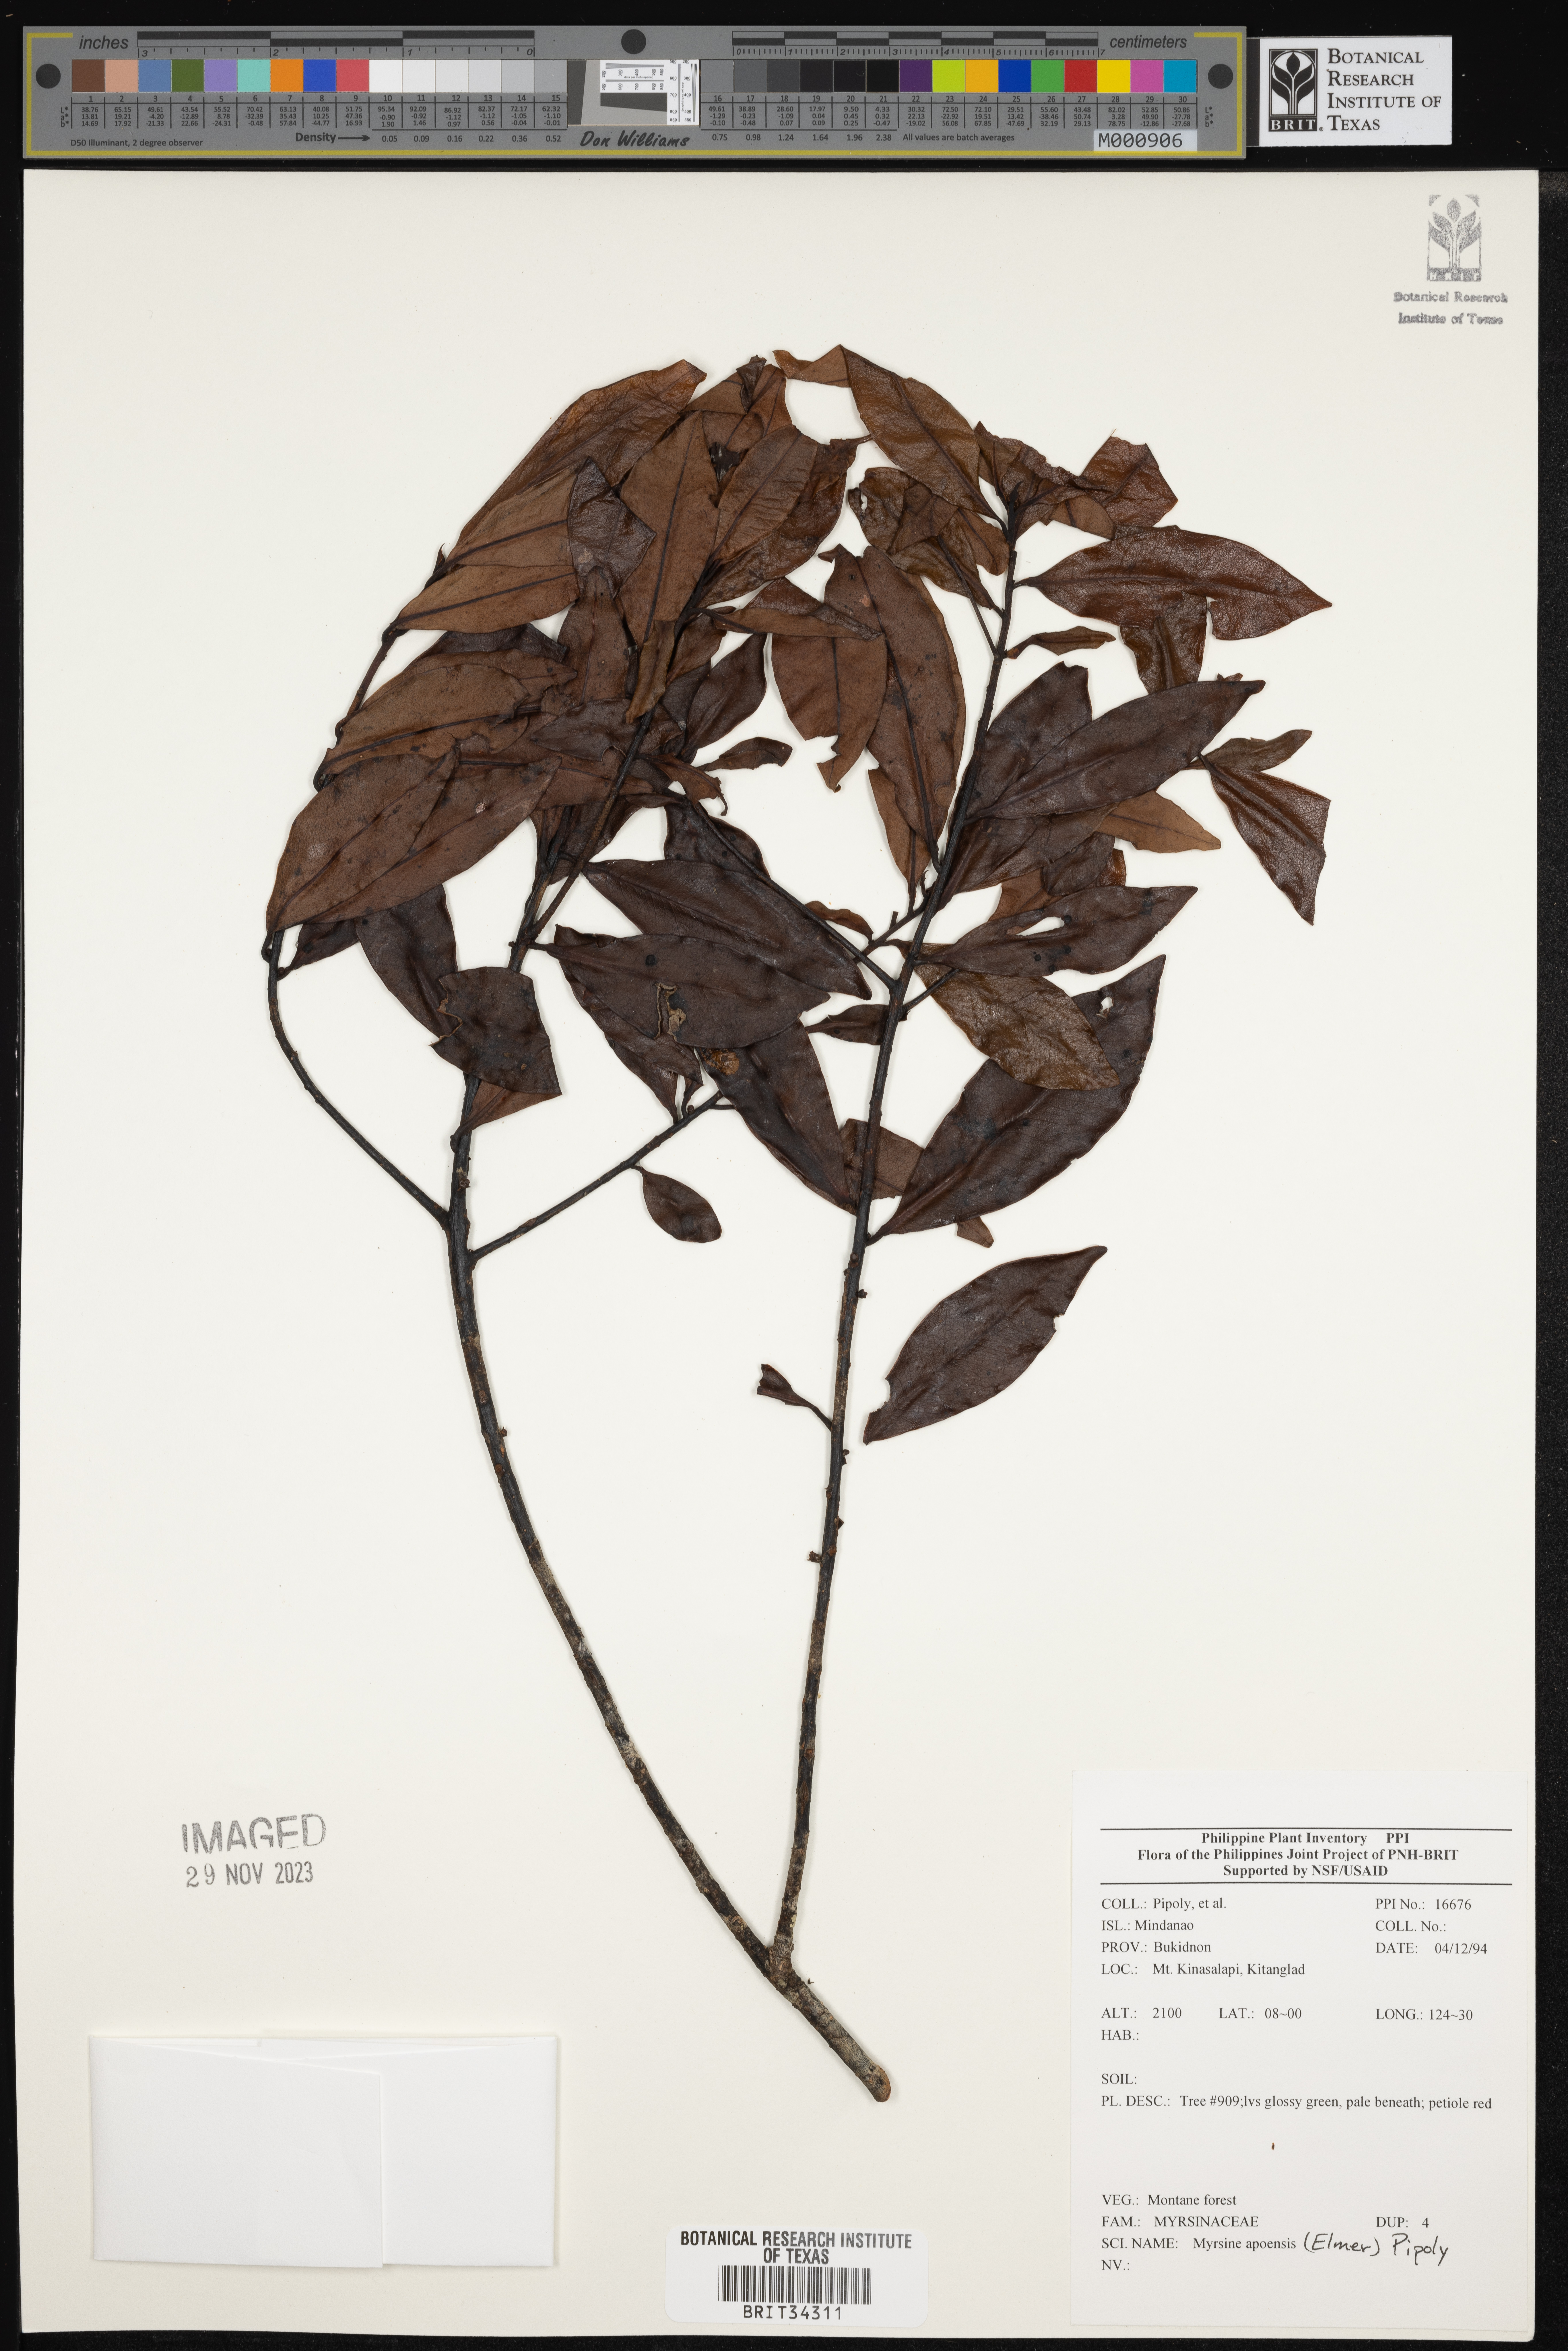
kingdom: Plantae
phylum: Tracheophyta
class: Magnoliopsida
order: Ericales
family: Primulaceae
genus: Myrsine
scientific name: Myrsine apoensis
